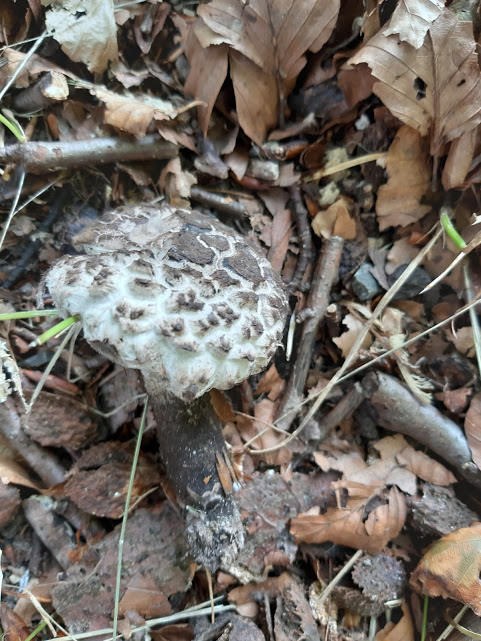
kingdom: Fungi
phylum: Basidiomycota
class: Agaricomycetes
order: Boletales
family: Boletaceae
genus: Strobilomyces
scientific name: Strobilomyces strobilaceus
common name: koglerørhat
